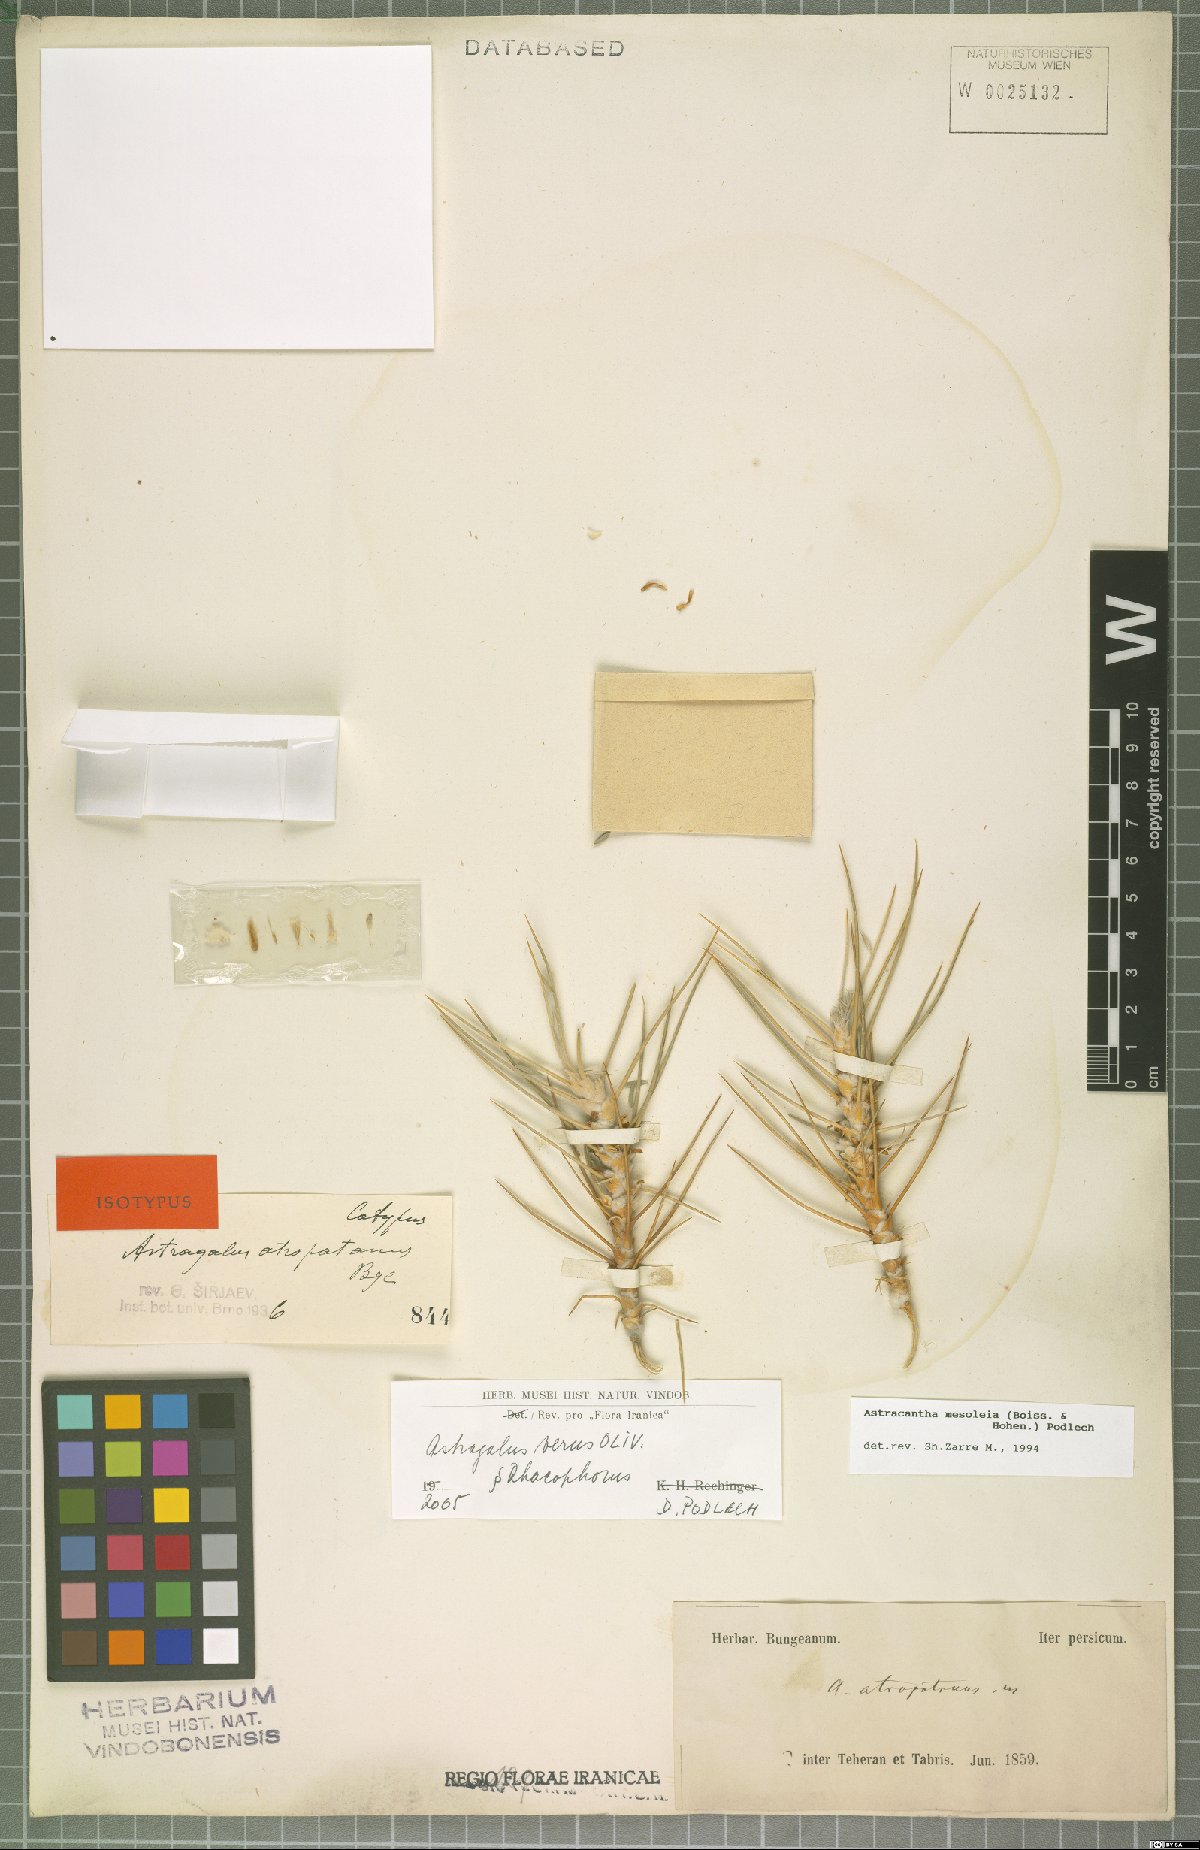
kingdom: Plantae
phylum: Tracheophyta
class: Magnoliopsida
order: Fabales
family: Fabaceae
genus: Astragalus
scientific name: Astragalus verus
